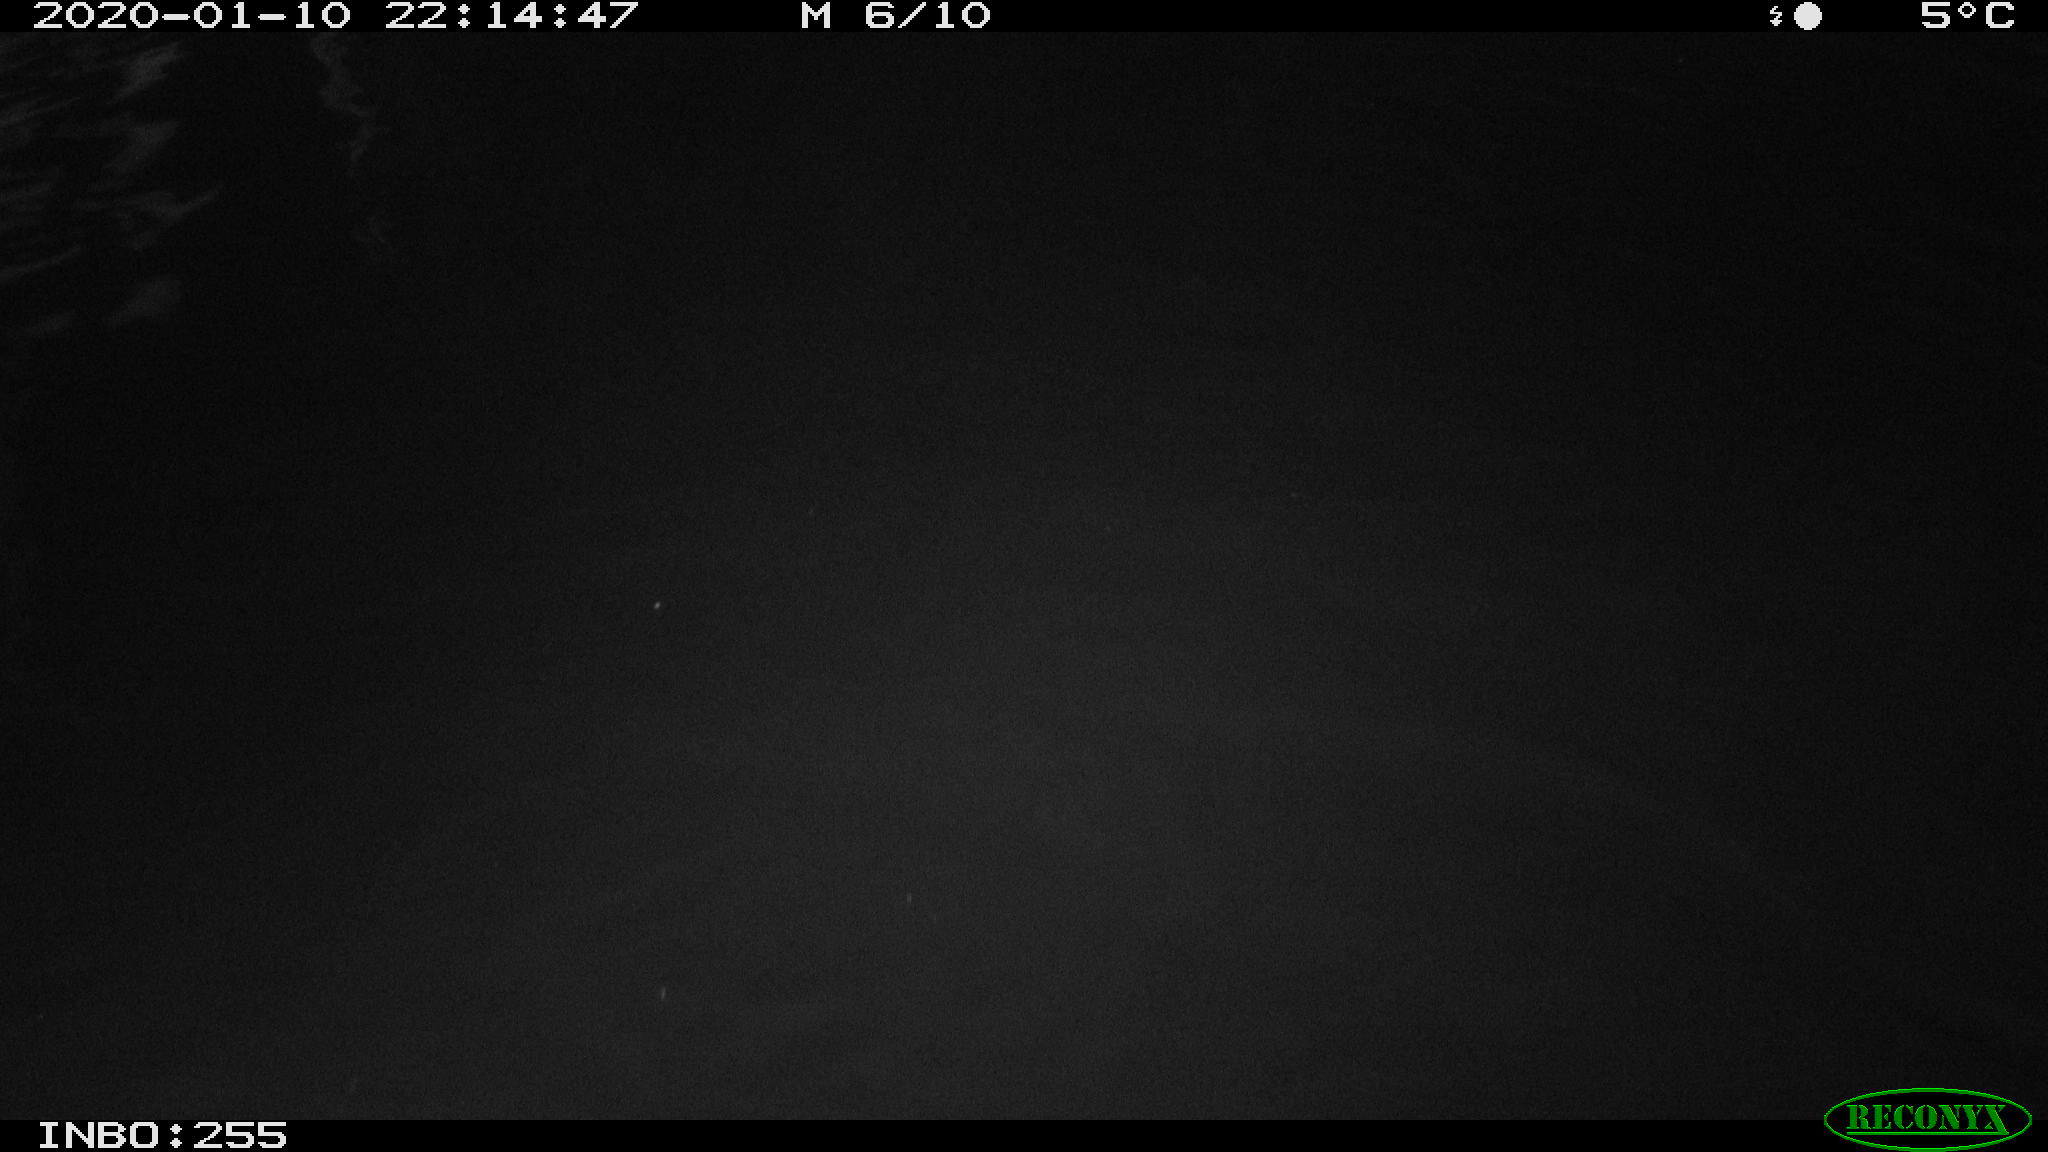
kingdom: Animalia
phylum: Chordata
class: Aves
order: Anseriformes
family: Anatidae
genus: Anas
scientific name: Anas platyrhynchos
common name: Mallard
